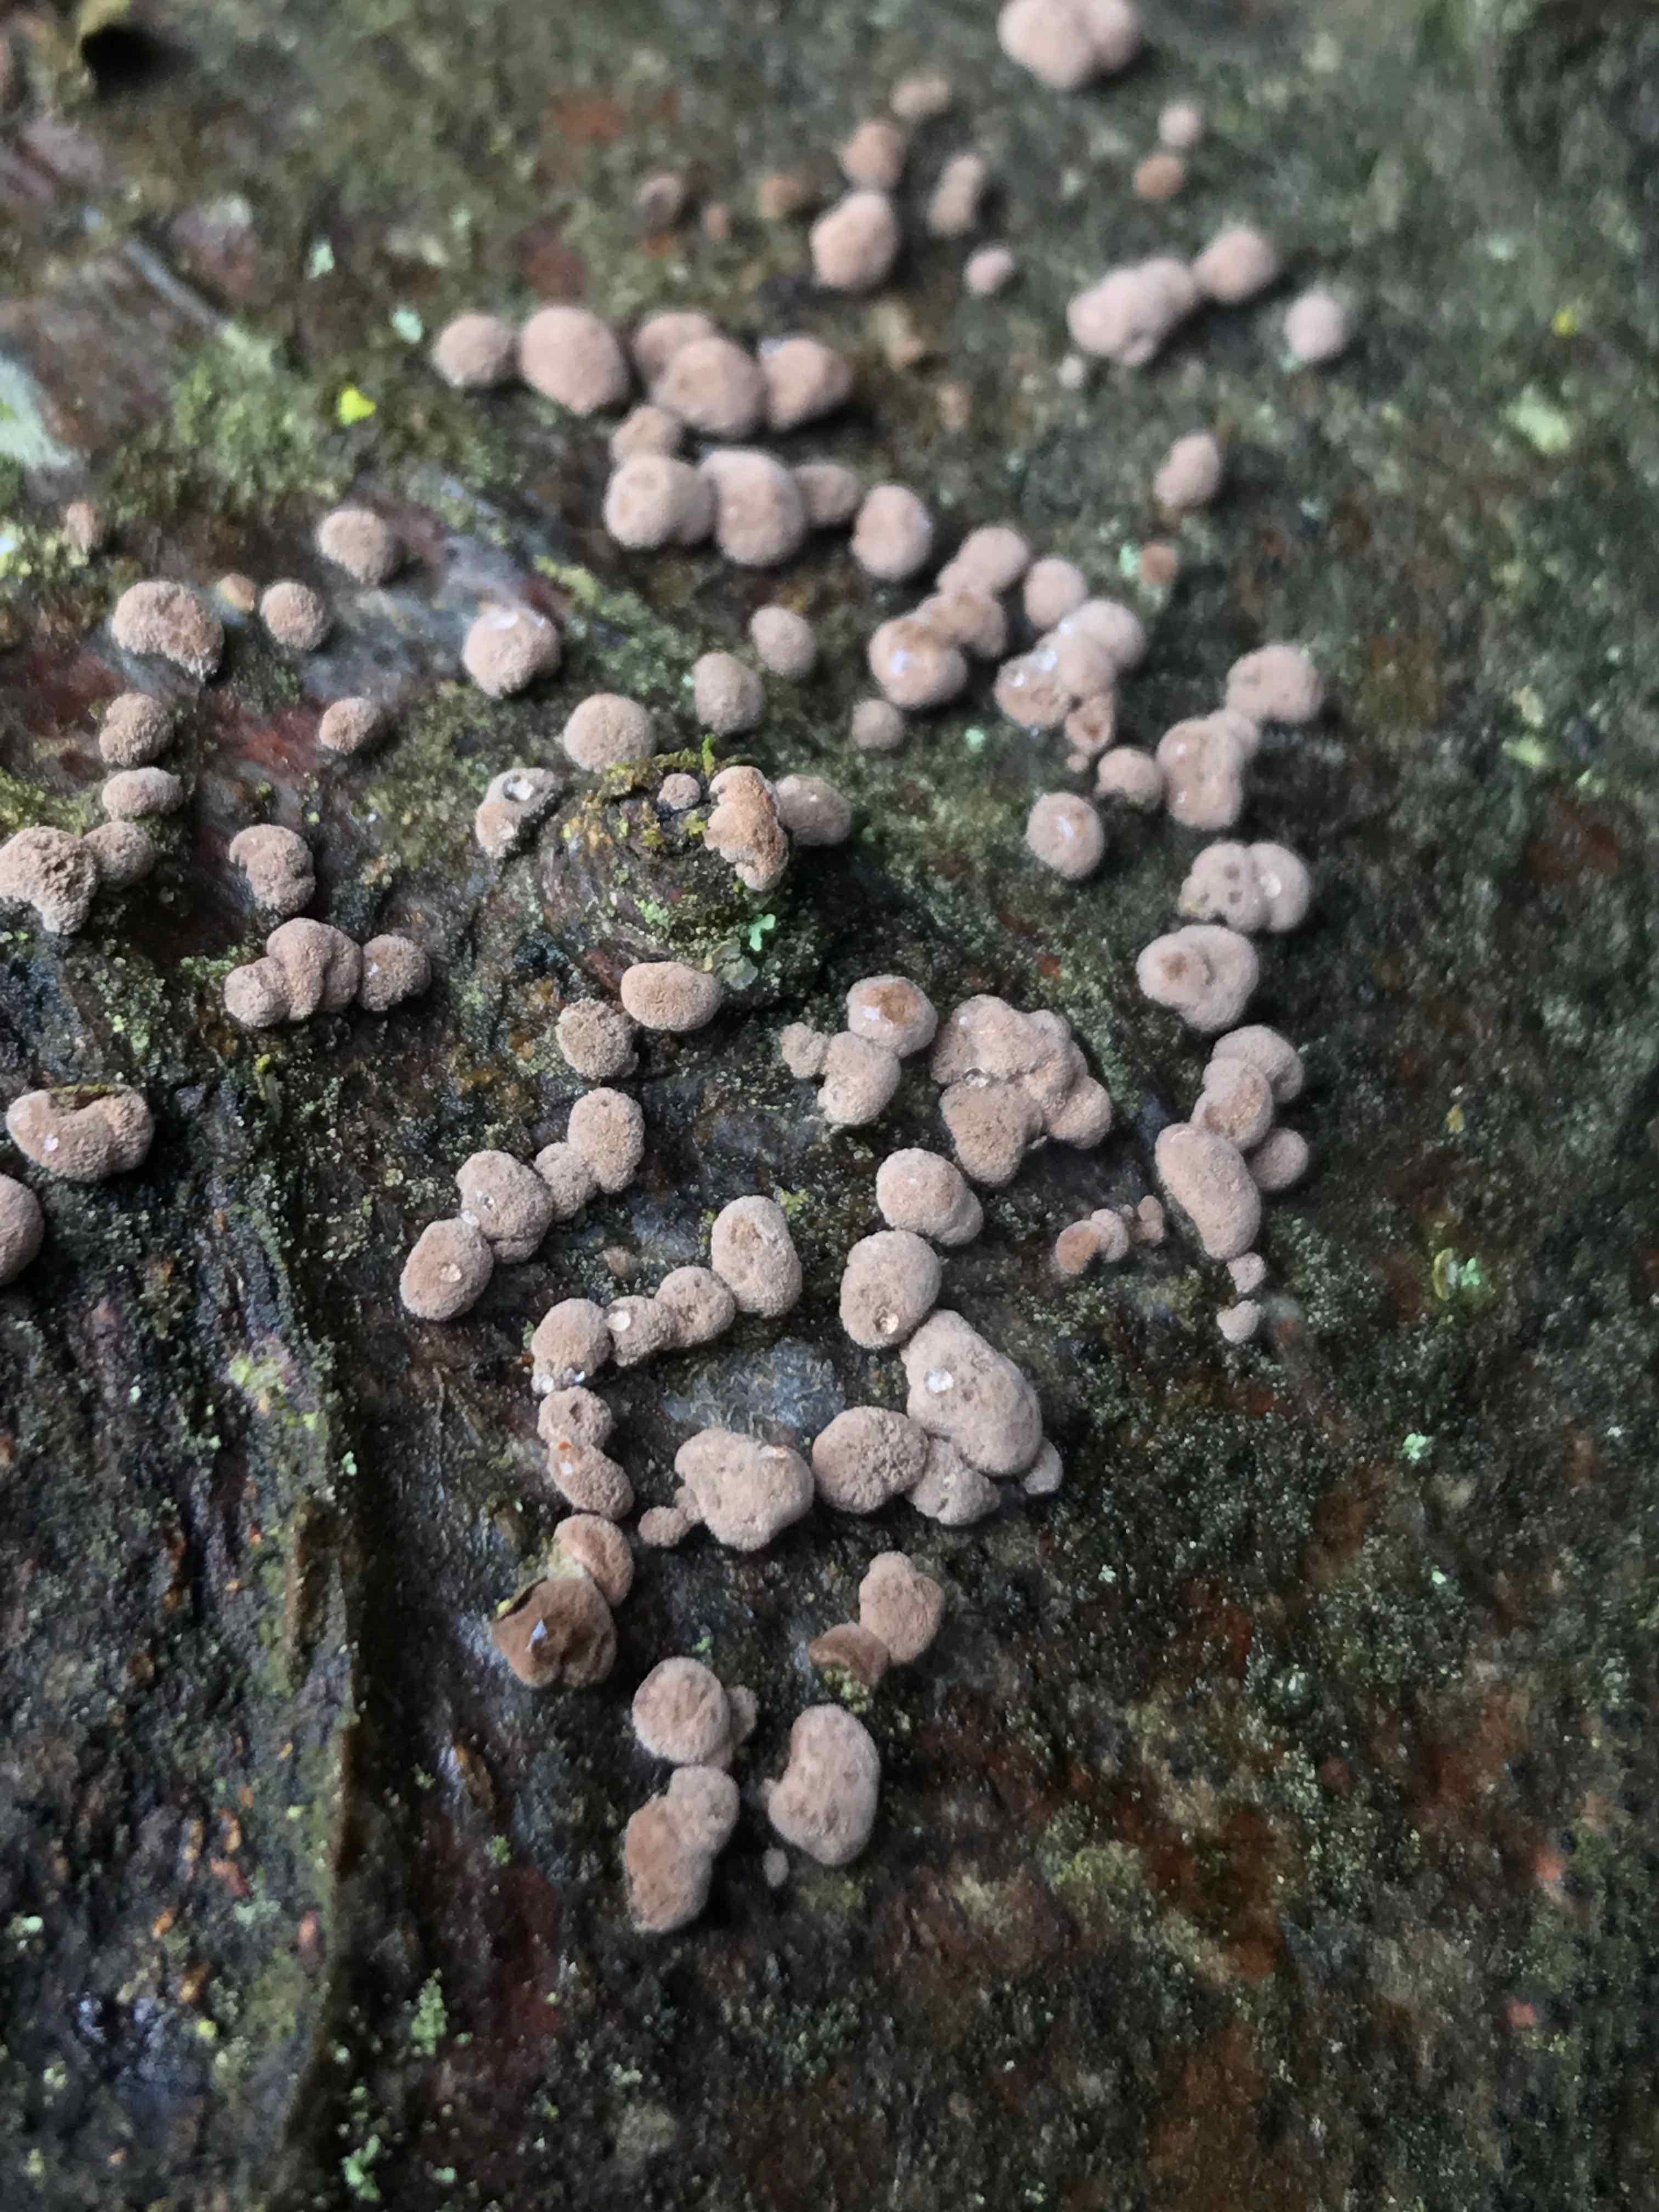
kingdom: Fungi
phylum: Ascomycota
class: Sordariomycetes
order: Xylariales
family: Hypoxylaceae
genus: Hypoxylon
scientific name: Hypoxylon fragiforme
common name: kuljordbær
